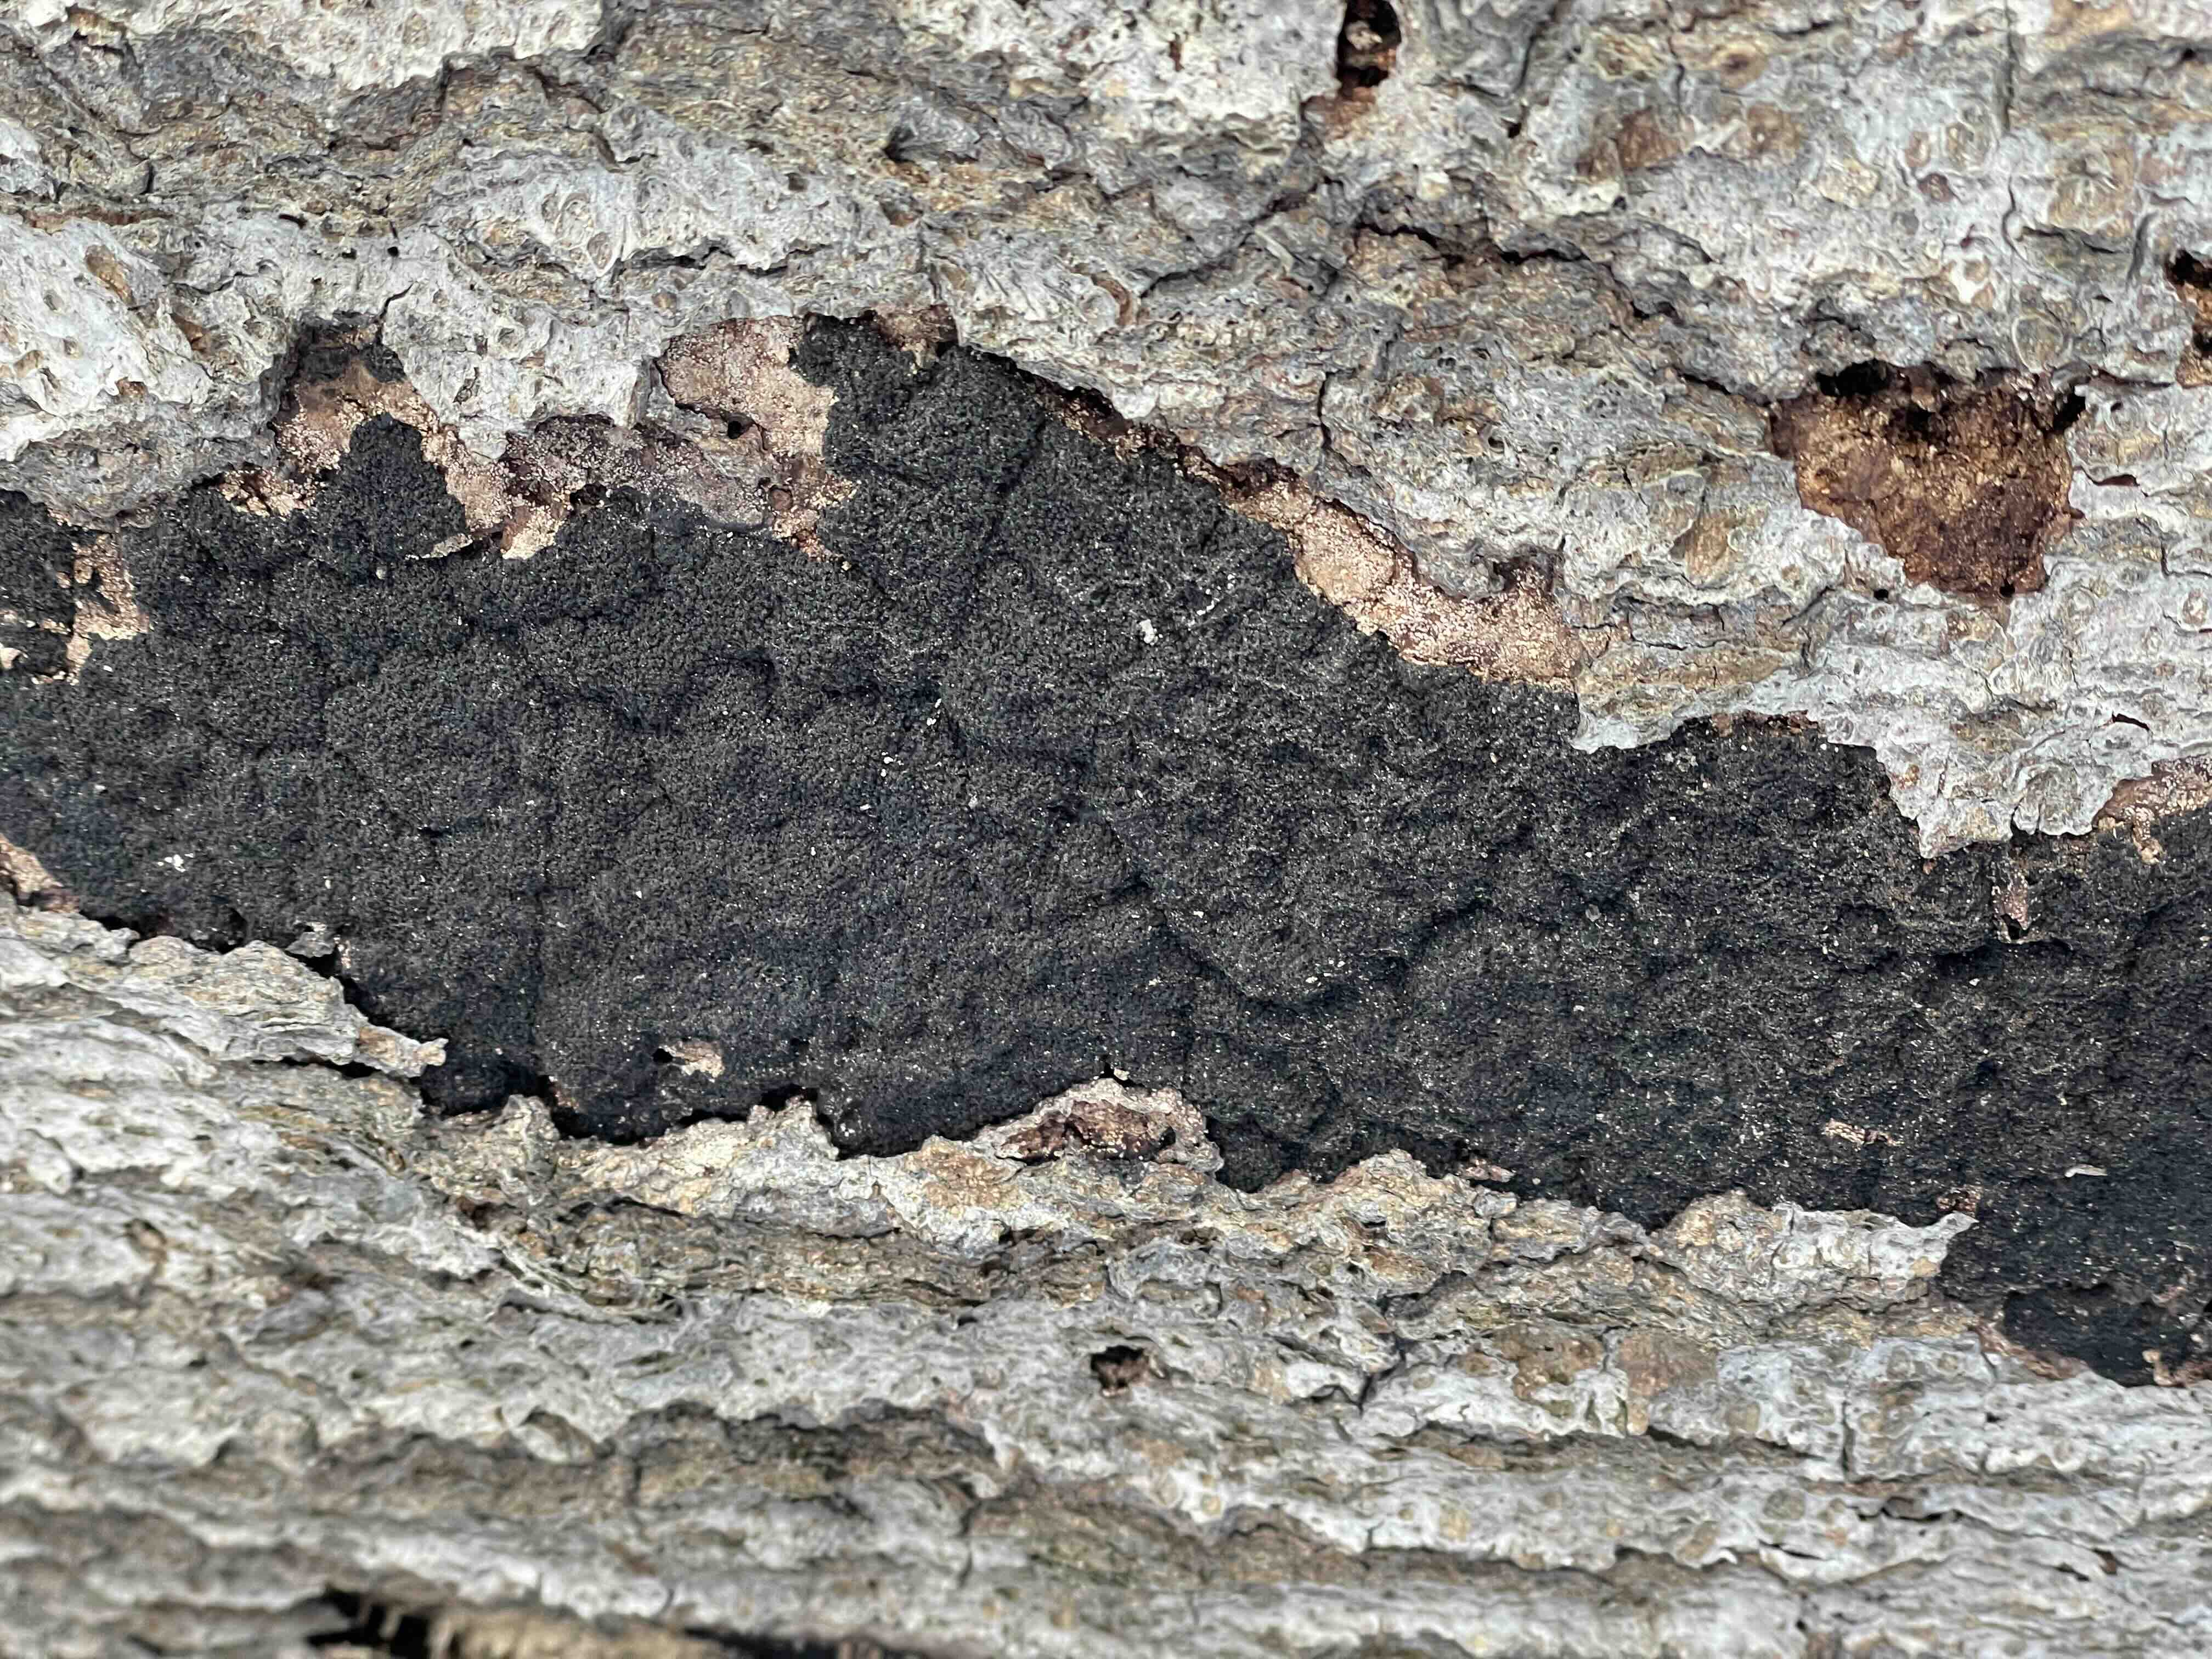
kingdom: Fungi
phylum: Ascomycota
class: Sordariomycetes
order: Xylariales
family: Diatrypaceae
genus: Eutypa
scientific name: Eutypa spinosa
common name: grov kulskorpe
